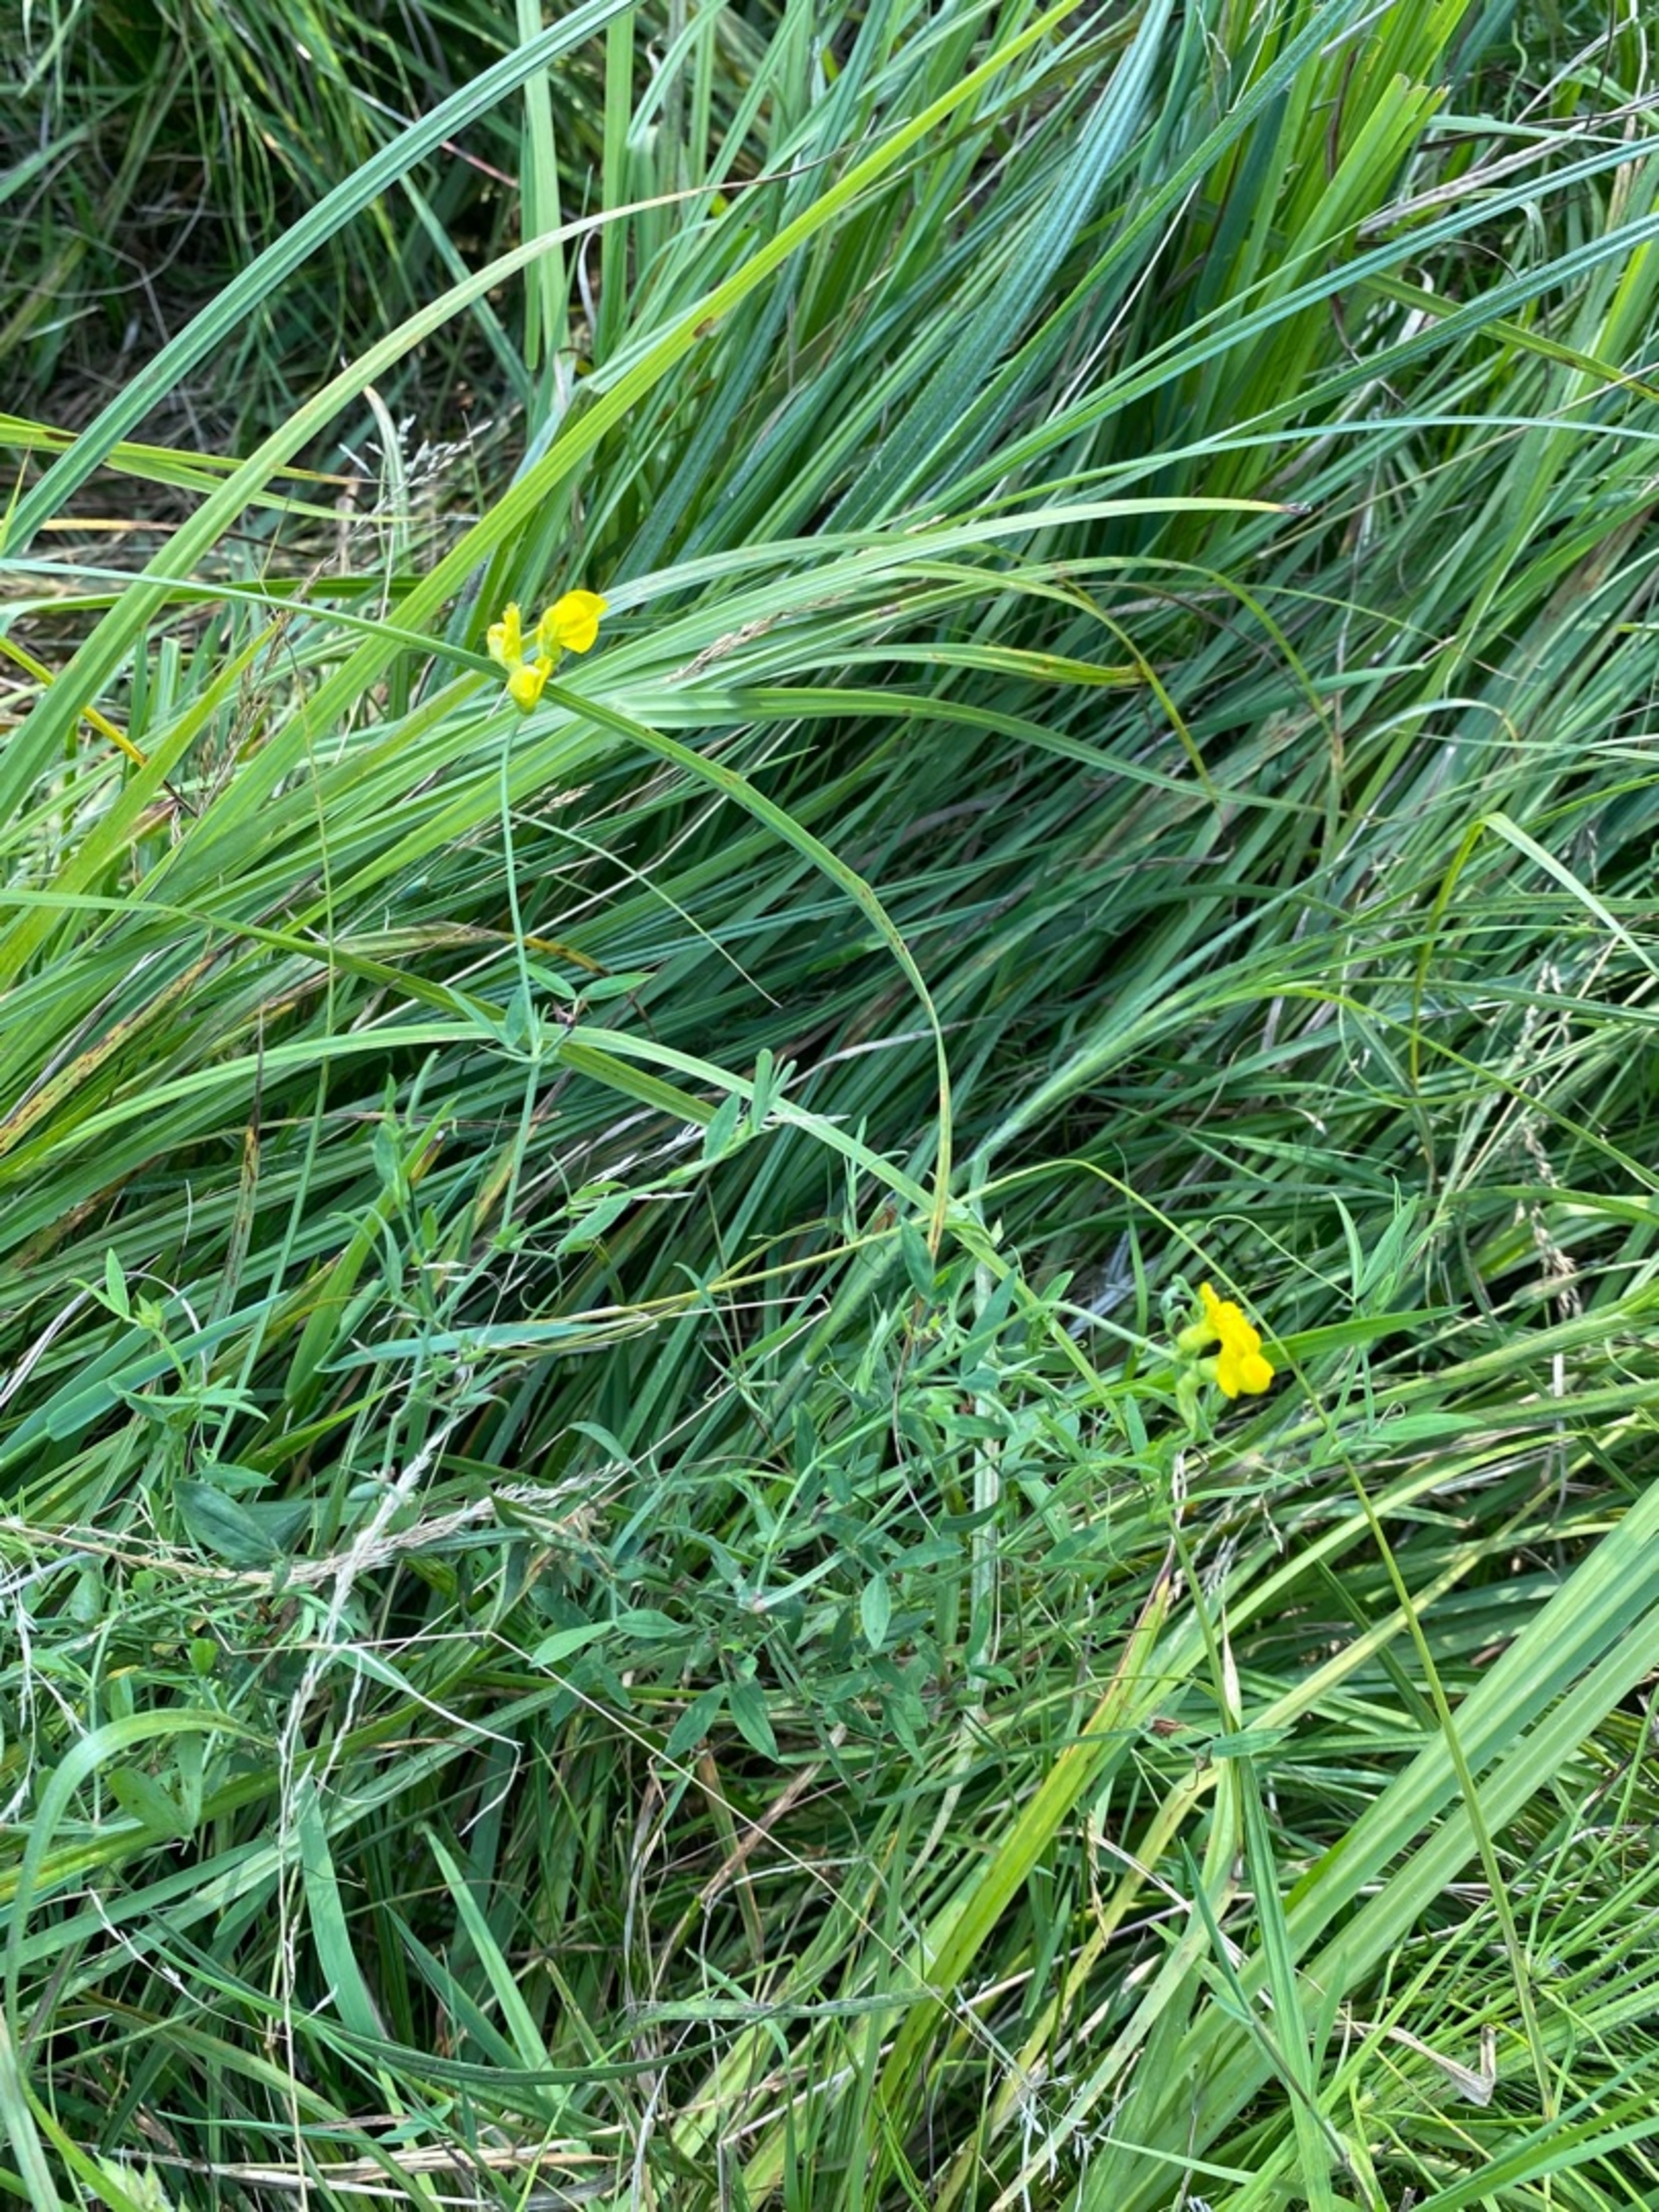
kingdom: Plantae
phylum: Tracheophyta
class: Magnoliopsida
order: Fabales
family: Fabaceae
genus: Lathyrus
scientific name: Lathyrus pratensis
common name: Gul fladbælg
